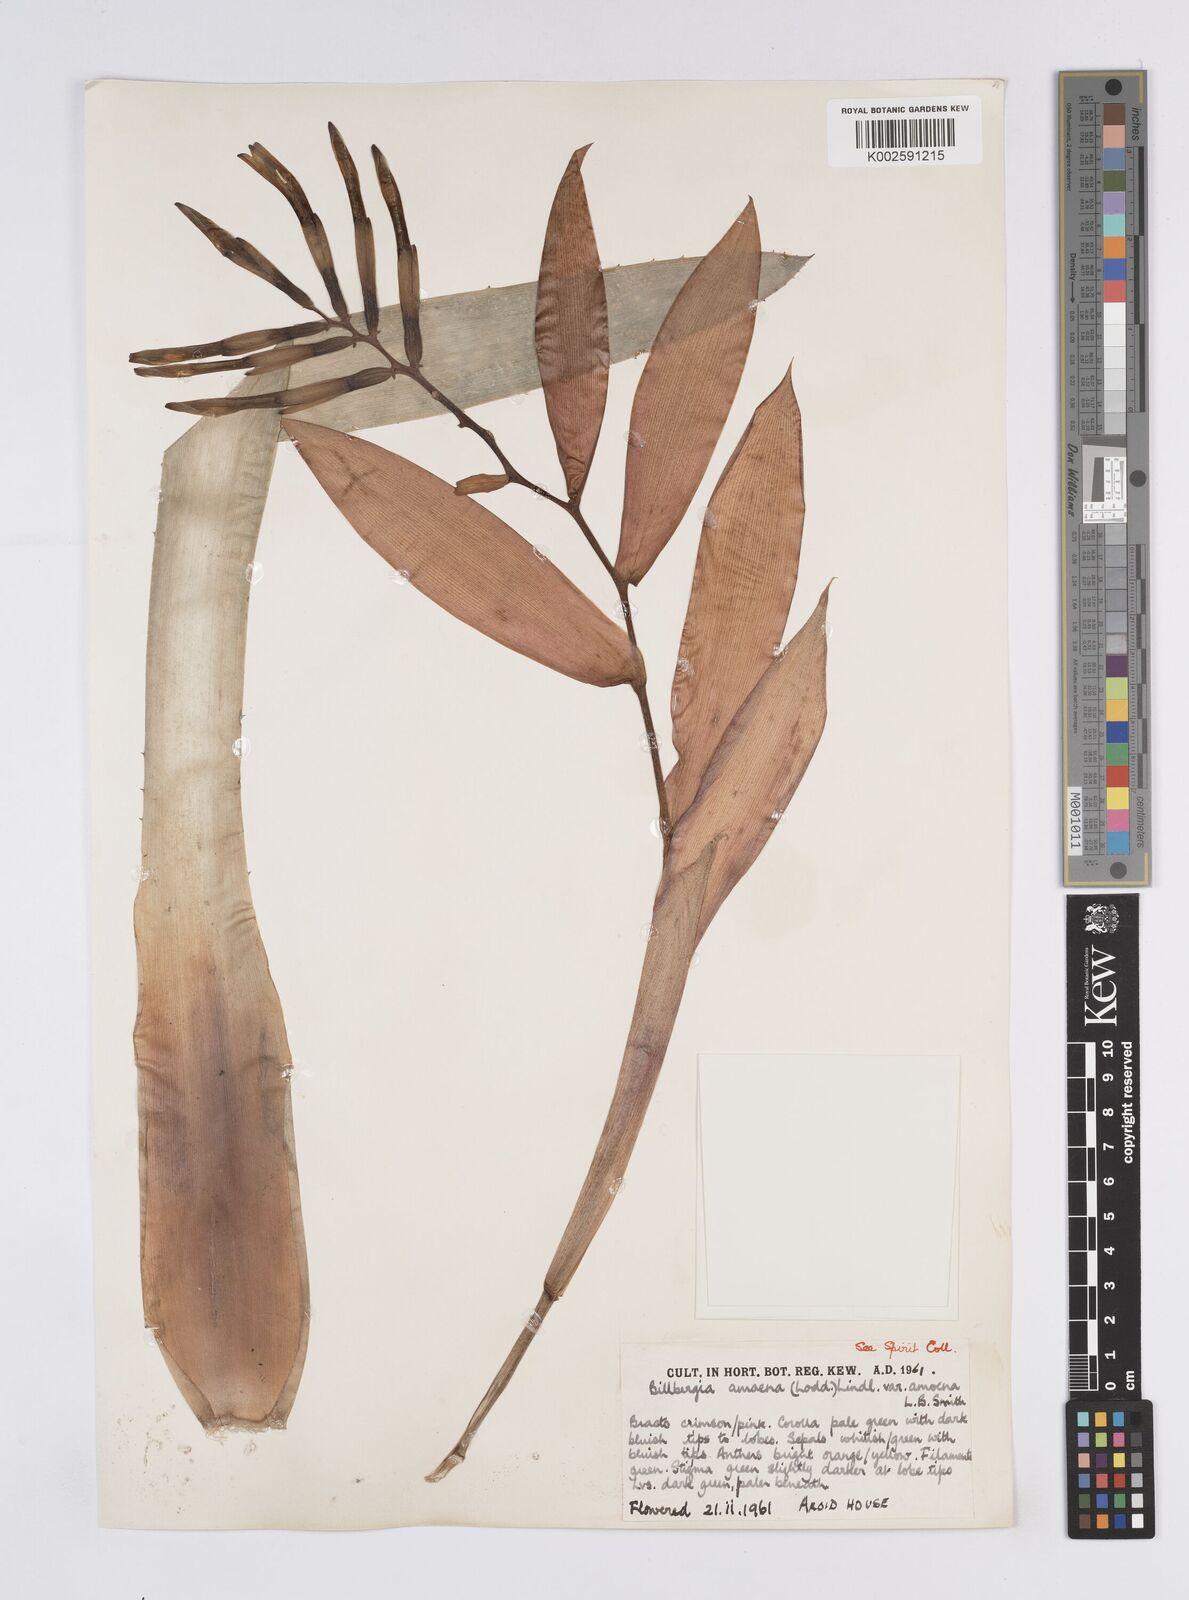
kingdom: Plantae
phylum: Tracheophyta
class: Liliopsida
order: Poales
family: Bromeliaceae
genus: Billbergia
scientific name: Billbergia amoena
